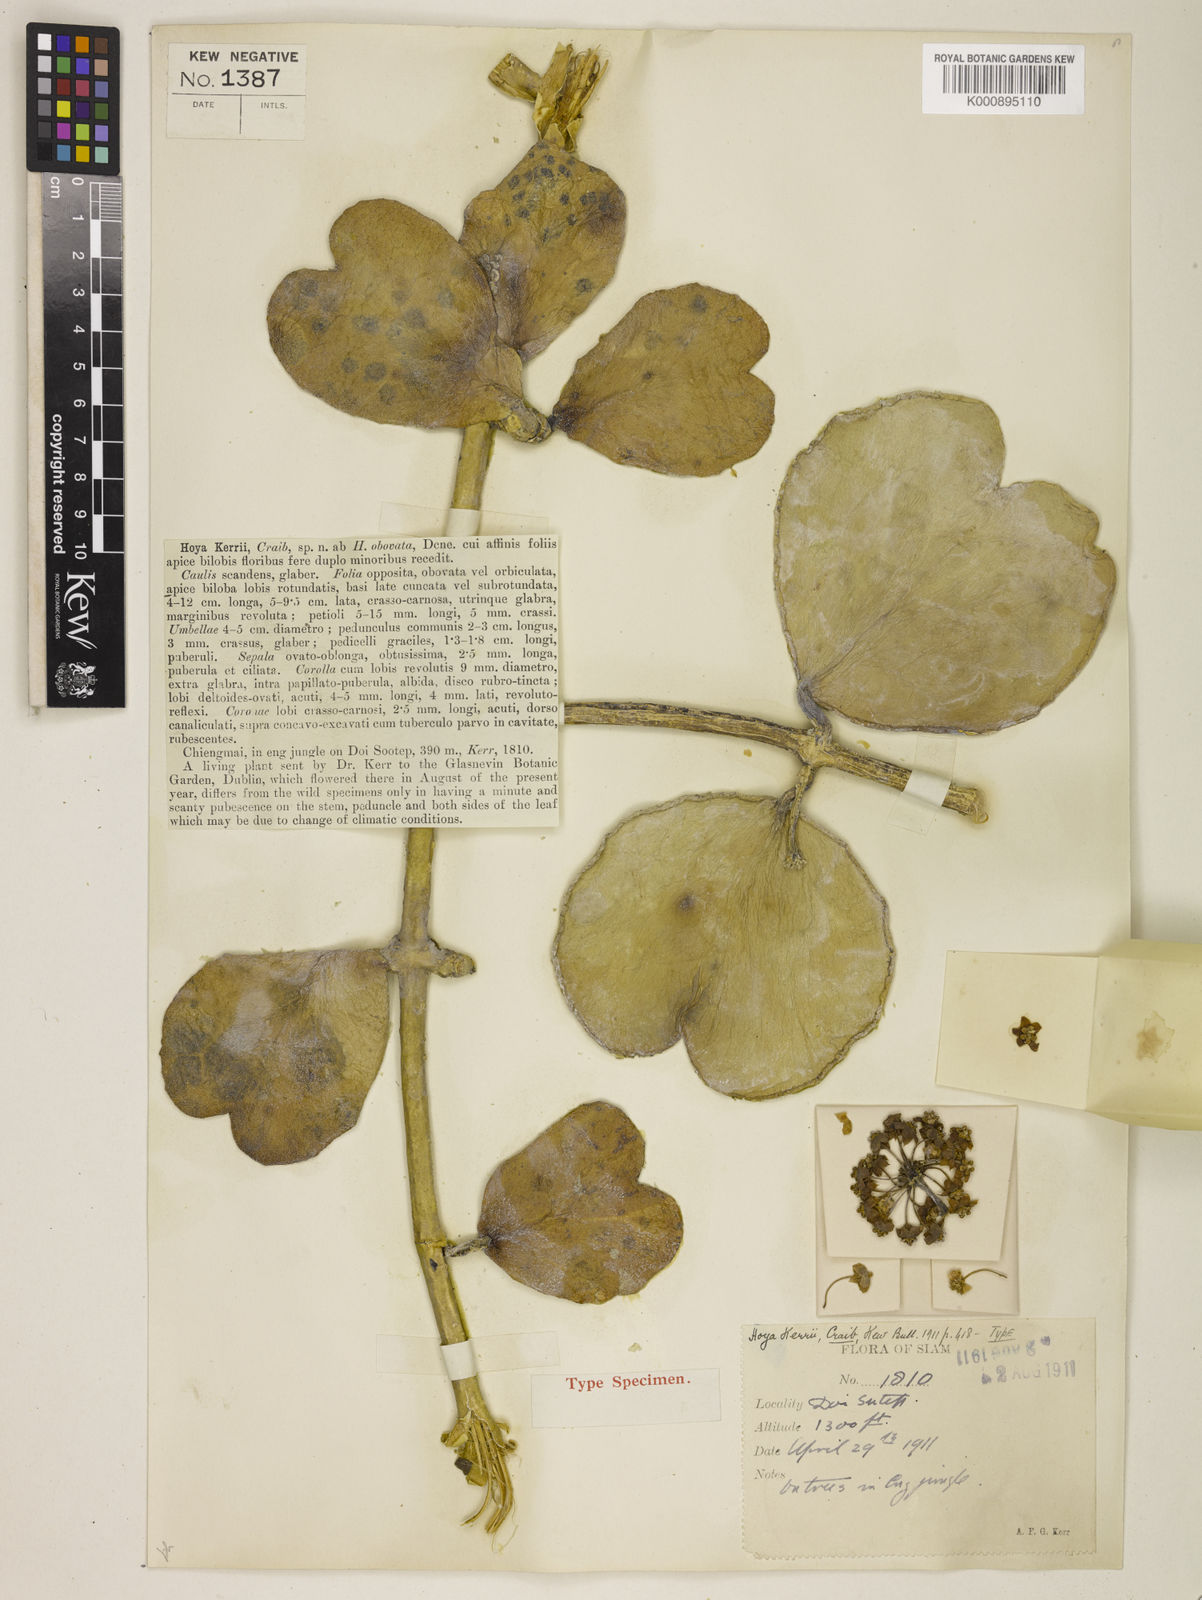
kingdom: Plantae
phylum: Tracheophyta
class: Magnoliopsida
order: Gentianales
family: Apocynaceae
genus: Hoya
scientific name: Hoya kerrii
